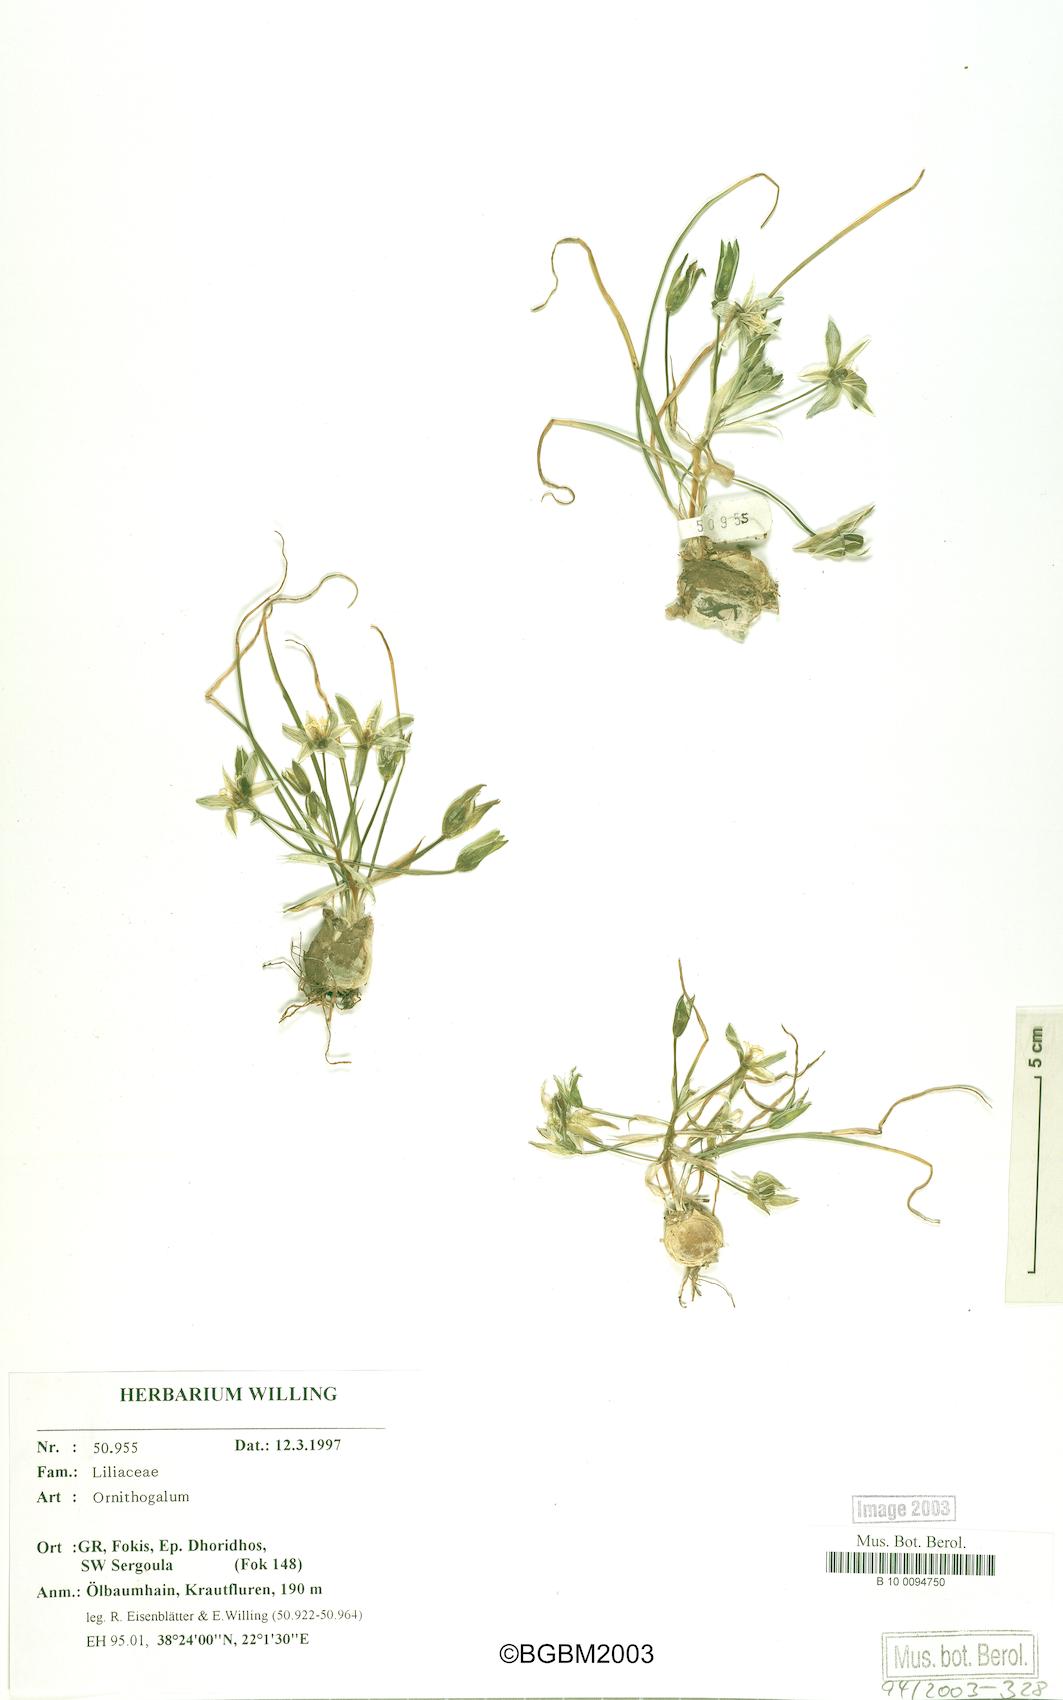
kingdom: Plantae
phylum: Tracheophyta
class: Liliopsida
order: Asparagales
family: Asparagaceae
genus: Ornithogalum
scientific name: Ornithogalum
